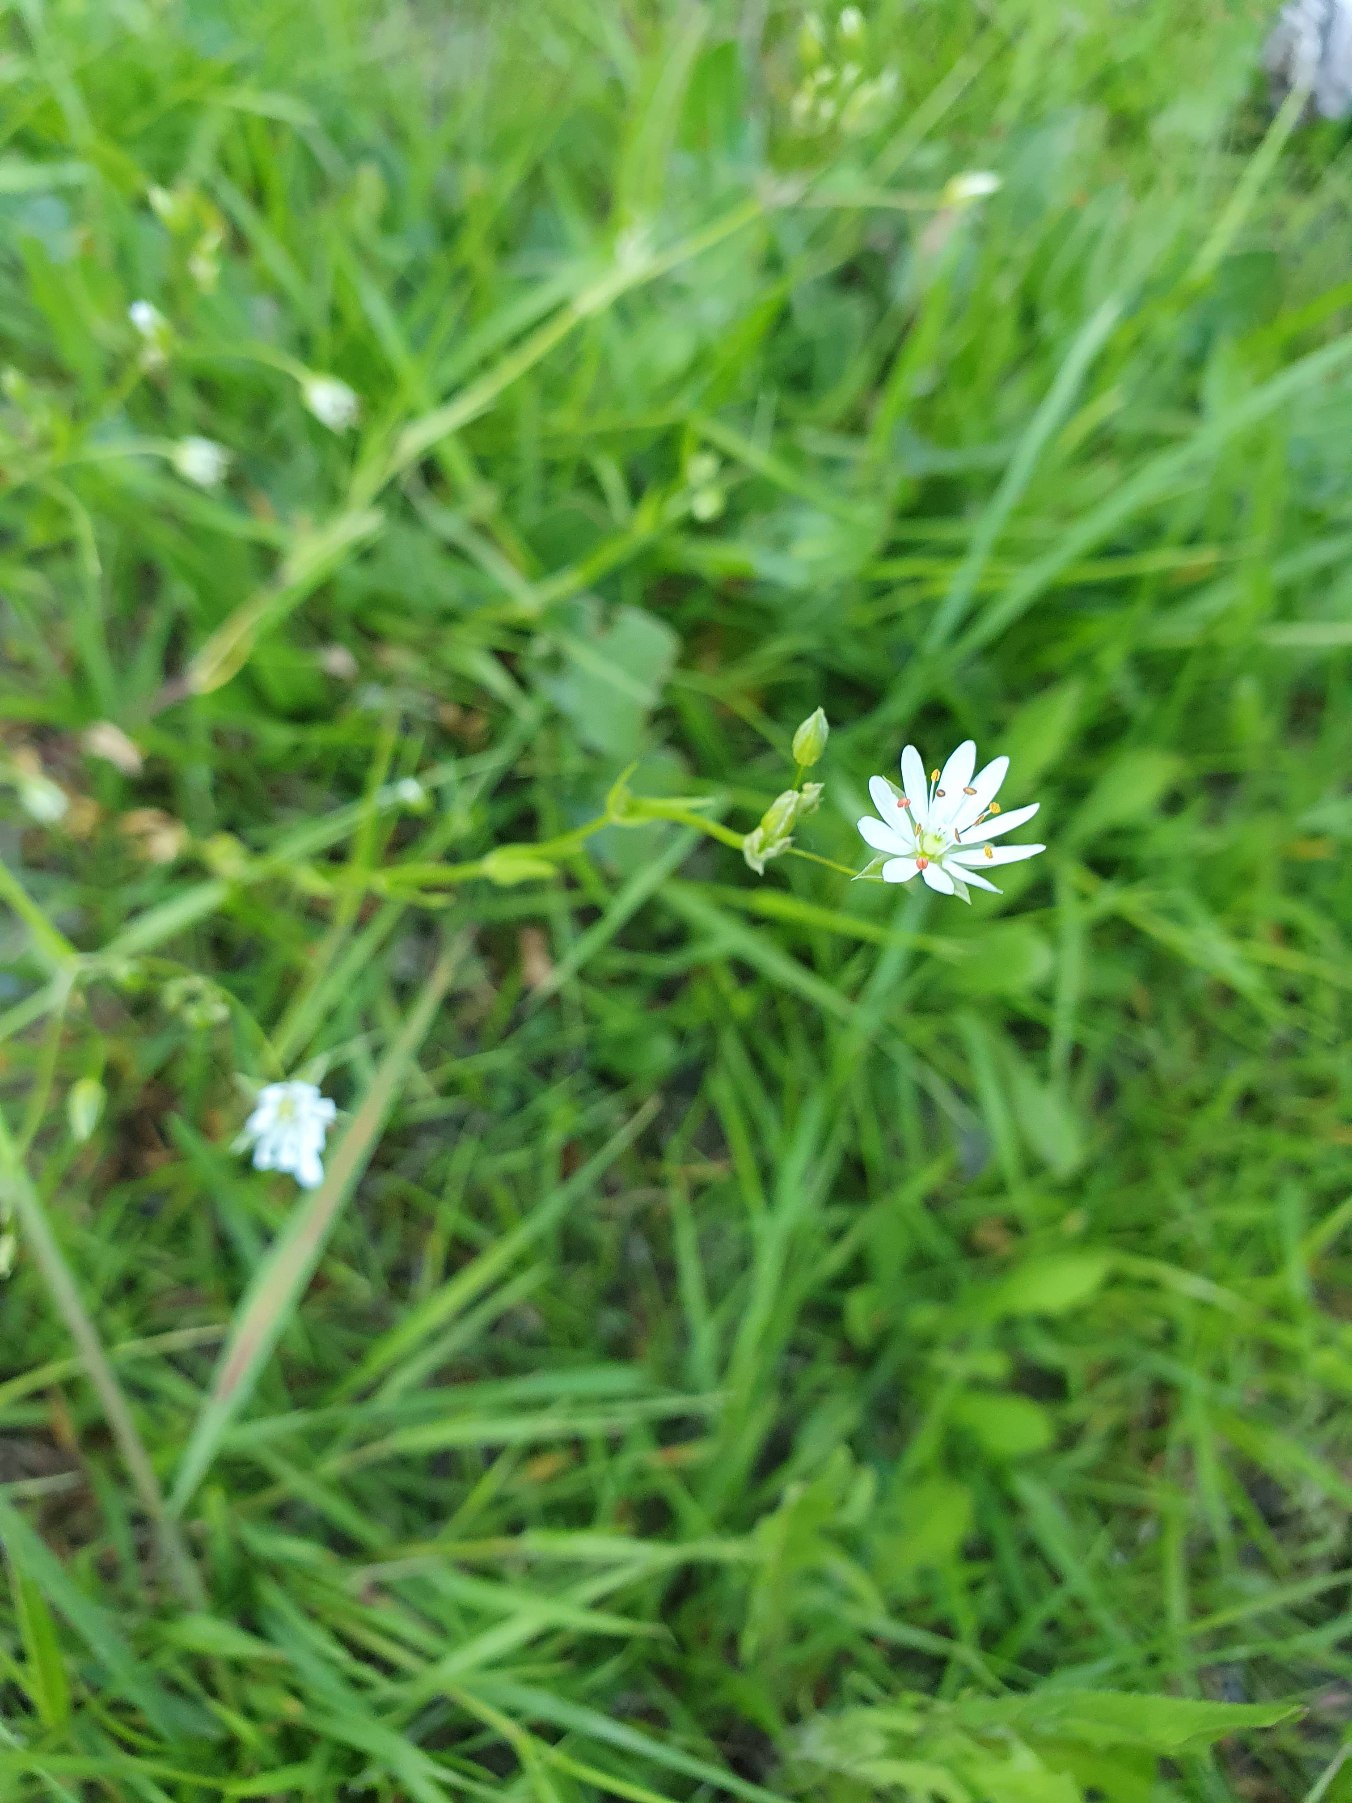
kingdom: Plantae
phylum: Tracheophyta
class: Magnoliopsida
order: Caryophyllales
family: Caryophyllaceae
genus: Stellaria
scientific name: Stellaria graminea
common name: Græsbladet fladstjerne
